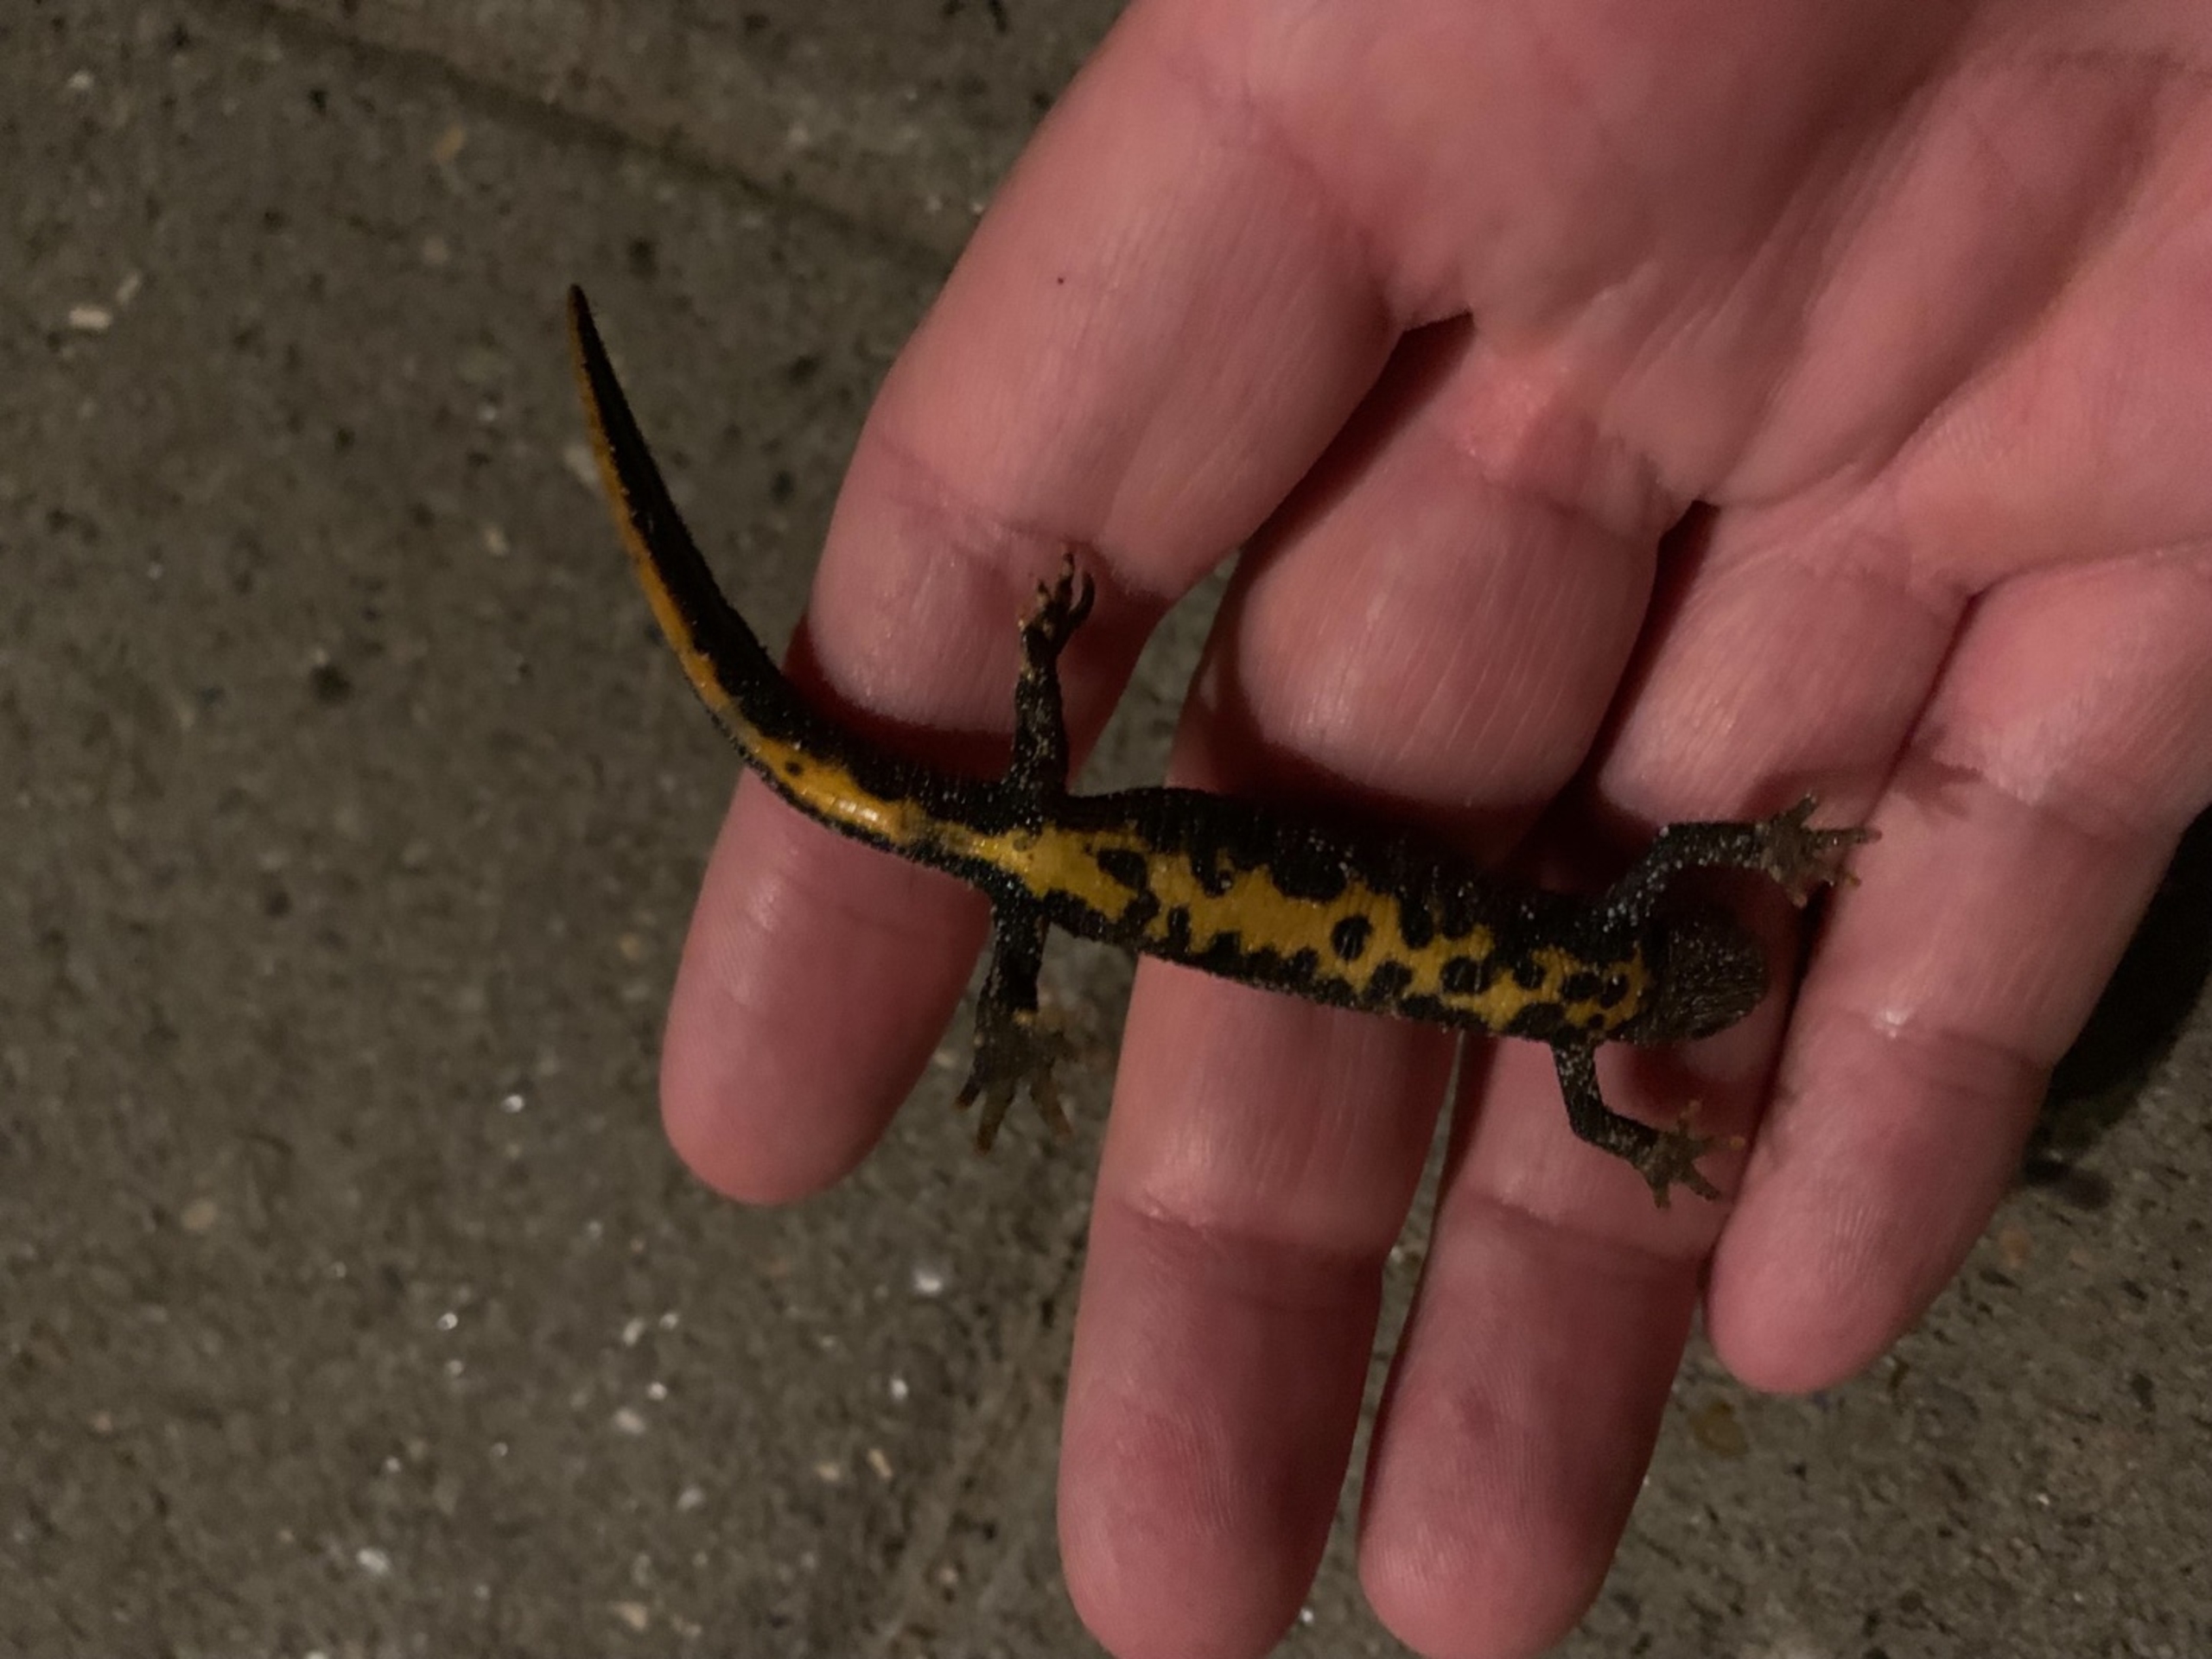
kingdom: Animalia
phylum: Chordata
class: Amphibia
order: Caudata
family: Salamandridae
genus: Triturus
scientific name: Triturus cristatus
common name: Stor vandsalamander
